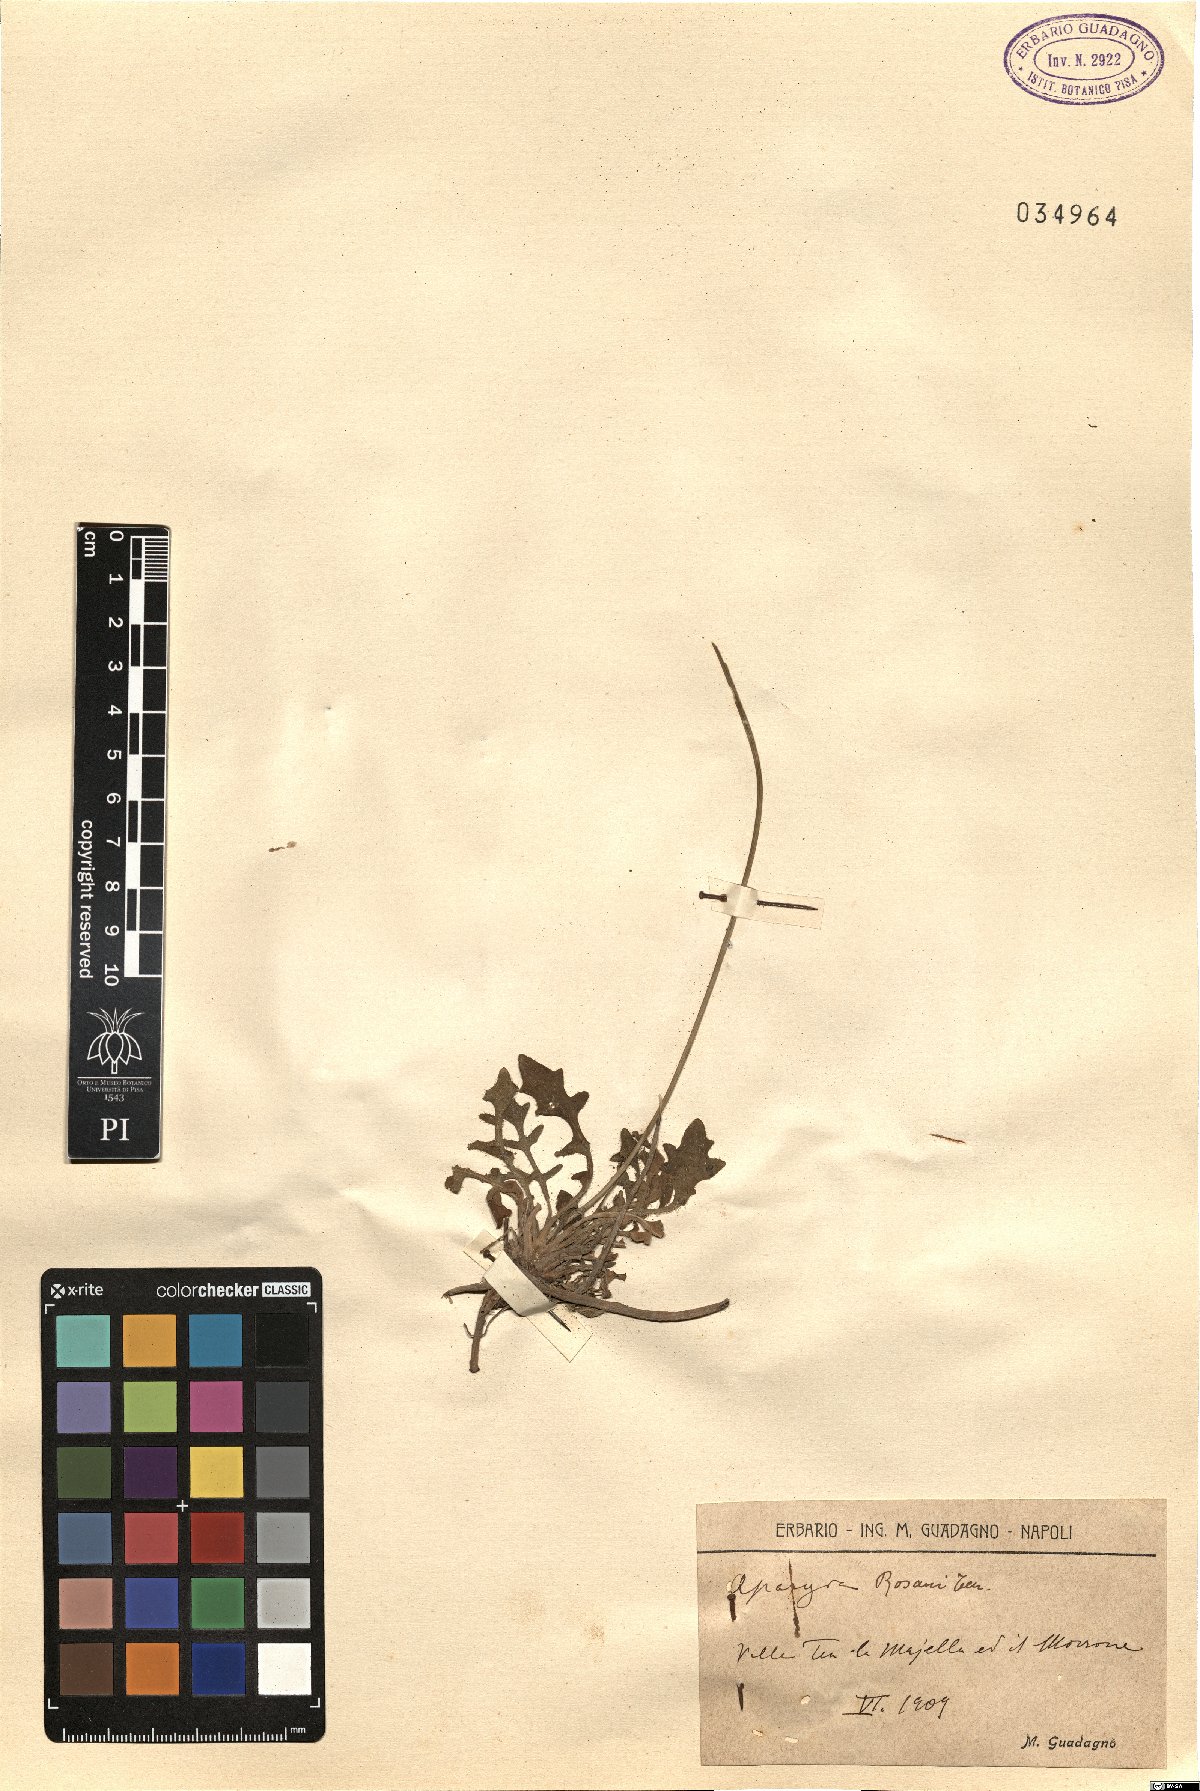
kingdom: Plantae
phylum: Tracheophyta
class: Magnoliopsida
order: Asterales
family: Asteraceae
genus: Leontodon
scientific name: Leontodon rosanoi
